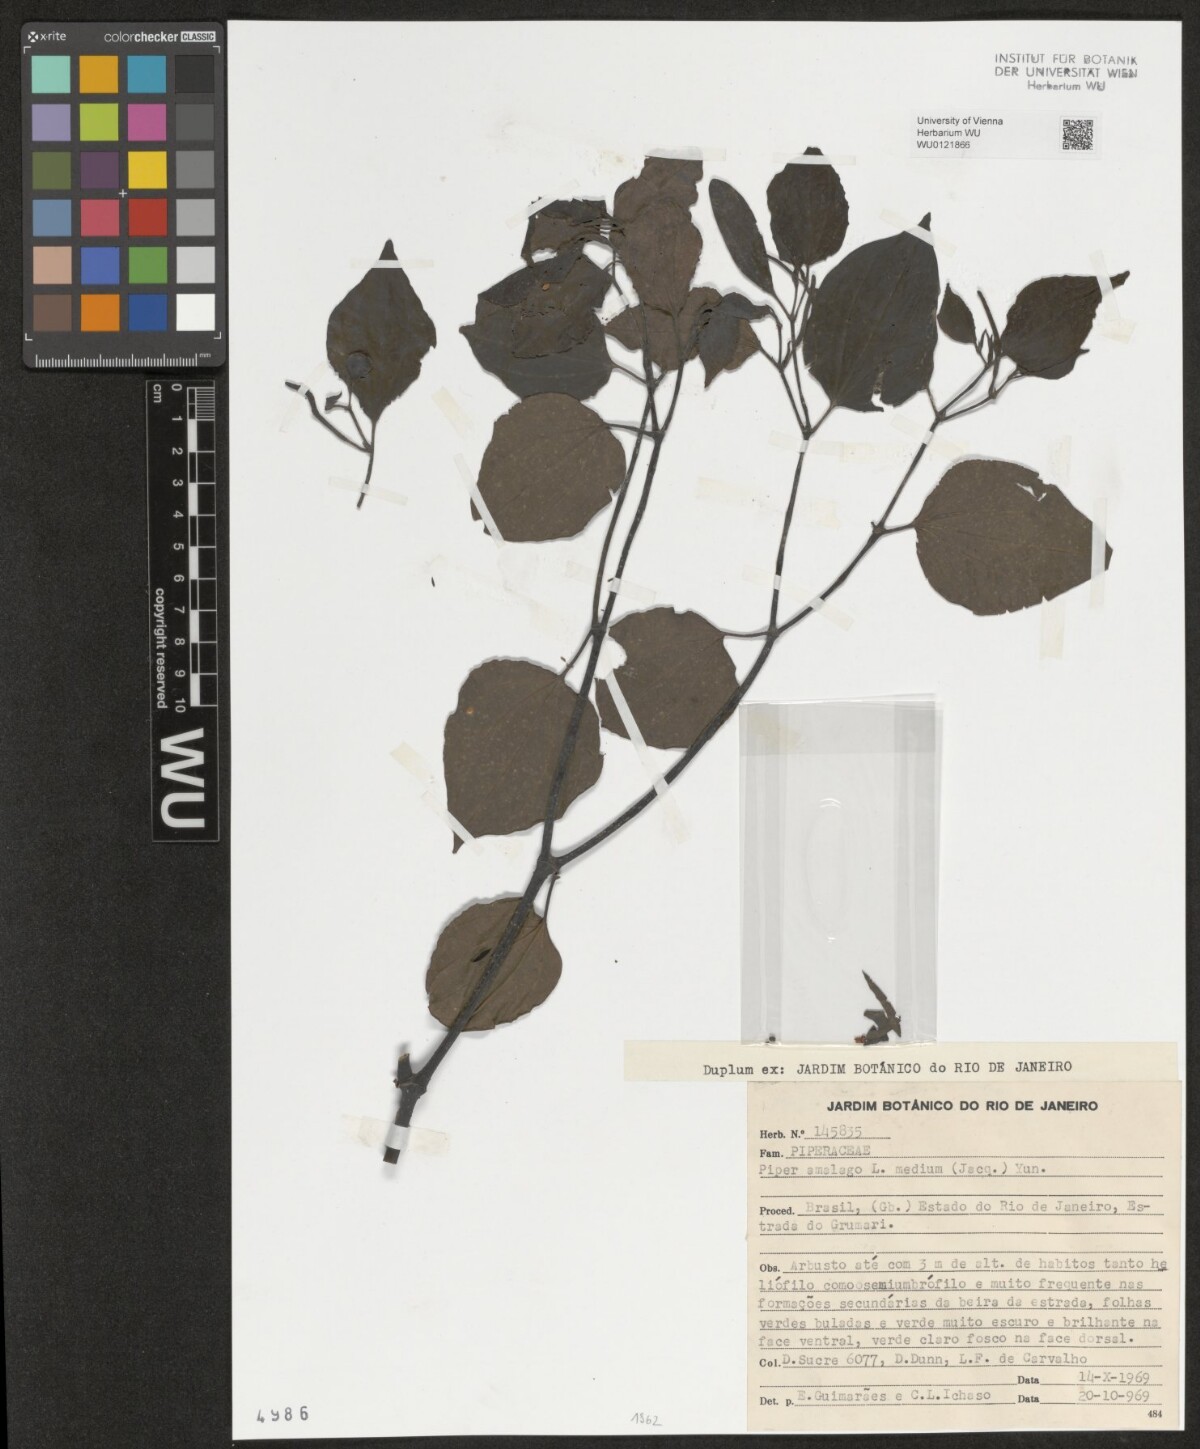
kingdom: Plantae
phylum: Tracheophyta
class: Magnoliopsida
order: Piperales
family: Piperaceae
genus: Piper
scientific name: Piper amalago
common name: Pepper-elder
